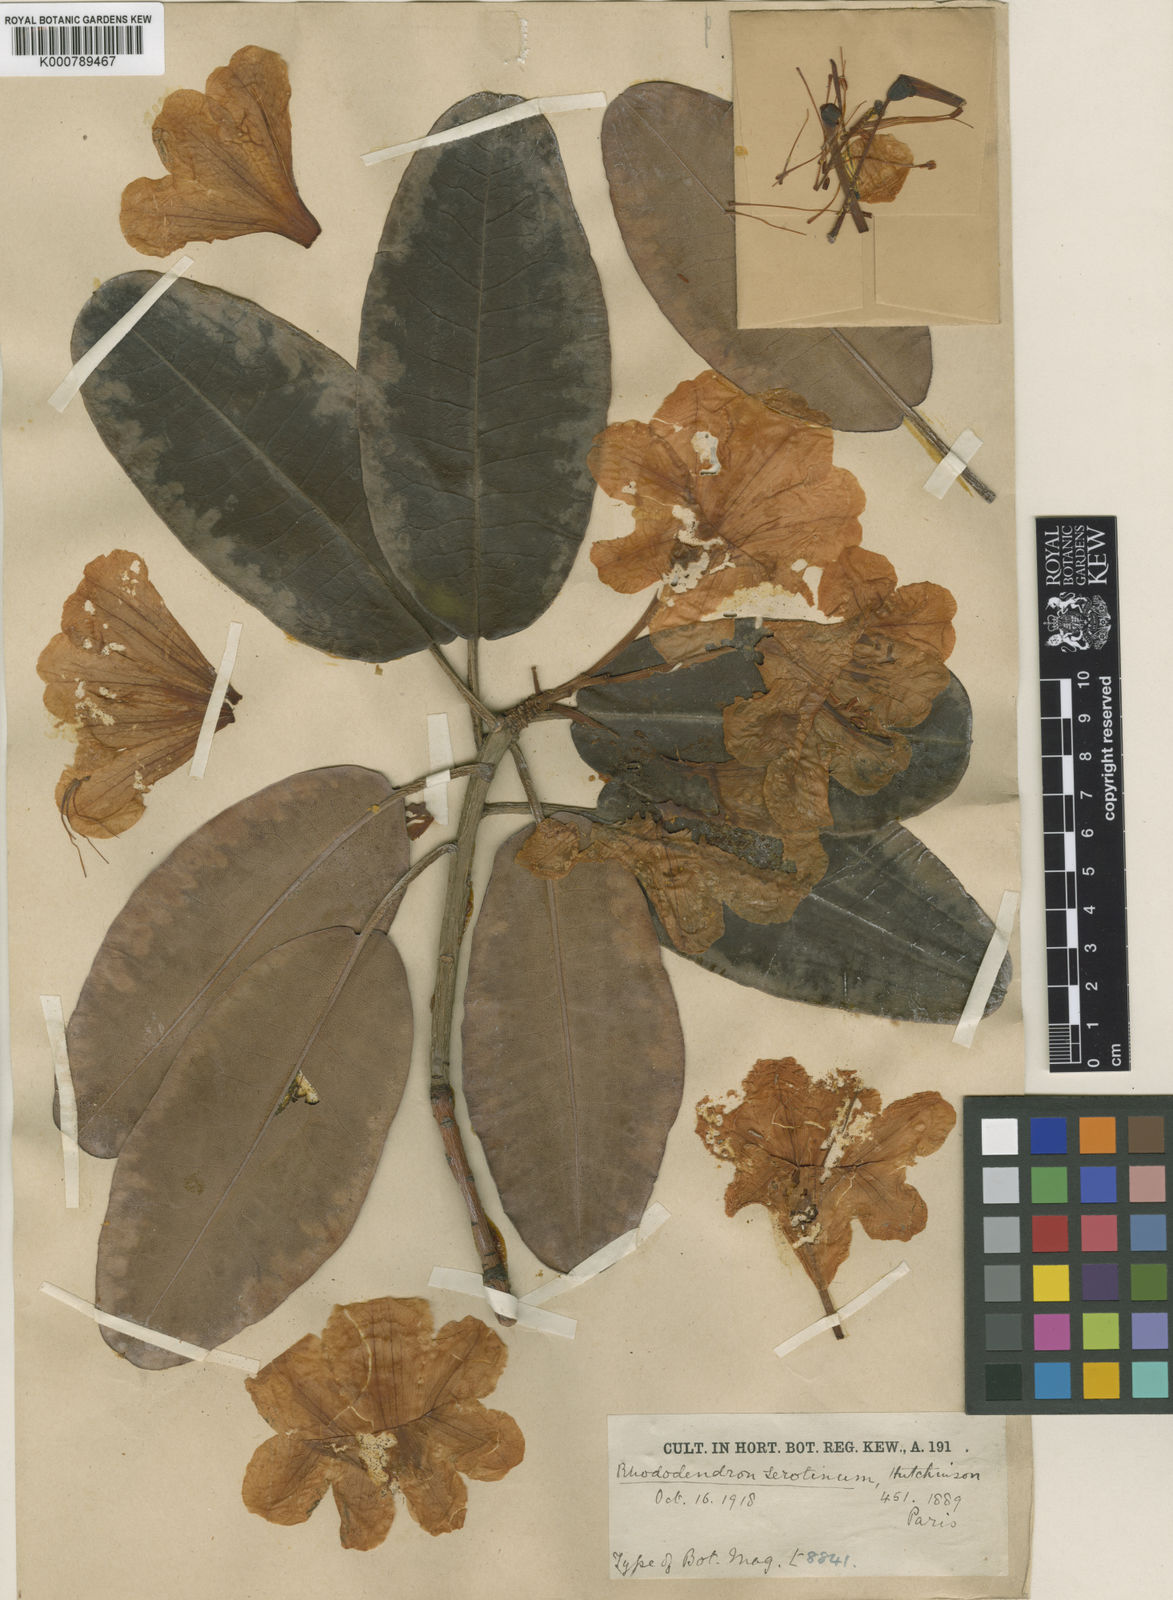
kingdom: Plantae
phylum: Tracheophyta
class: Magnoliopsida
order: Ericales
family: Ericaceae
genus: Rhododendron
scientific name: Rhododendron serotinum
